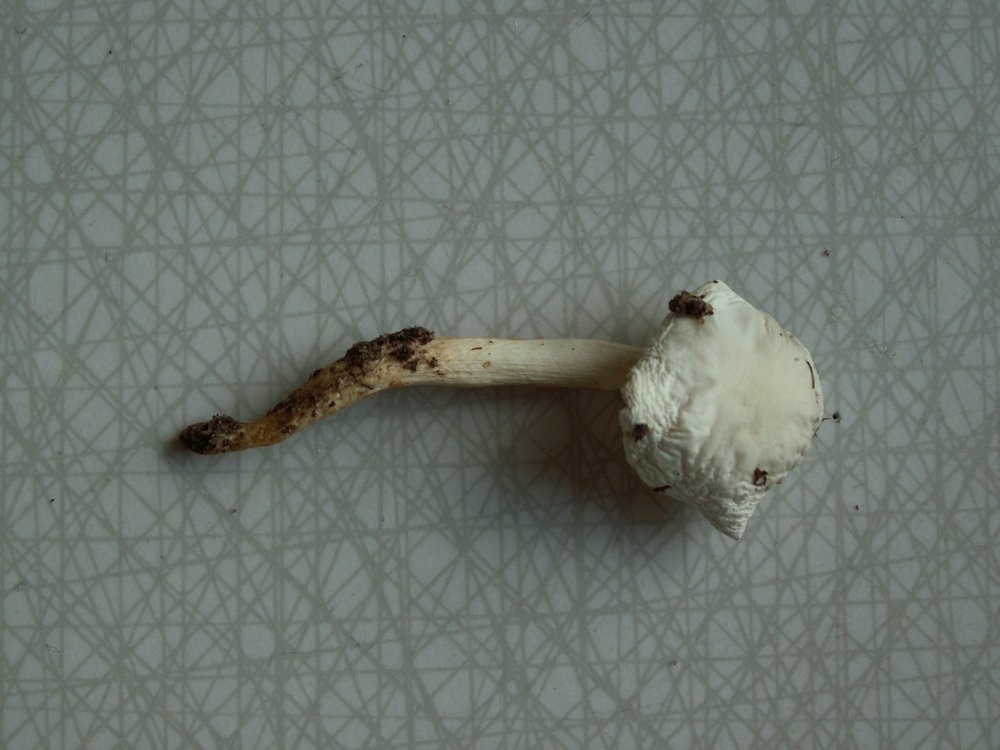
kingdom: Fungi
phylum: Basidiomycota
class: Agaricomycetes
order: Agaricales
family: Hygrophoraceae
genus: Hygrophorus
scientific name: Hygrophorus eburneus
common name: elfenbens-sneglehat
